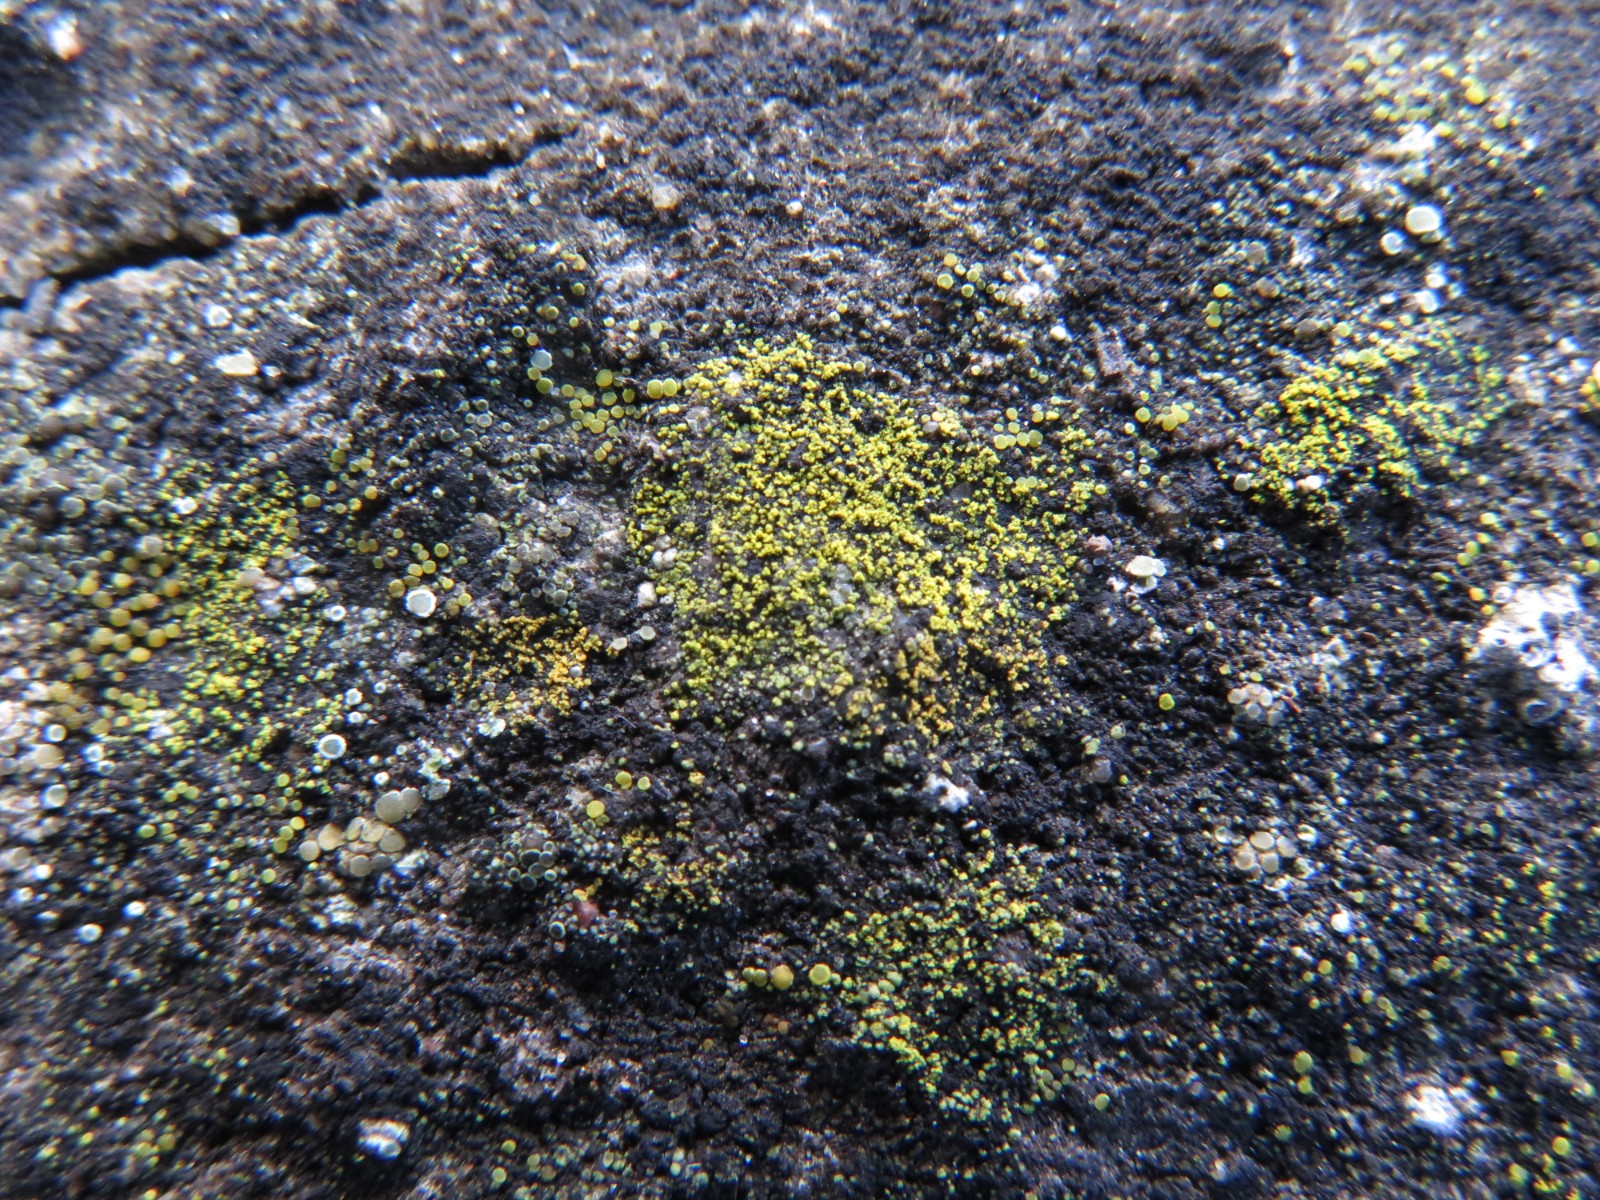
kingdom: Fungi
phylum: Ascomycota
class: Candelariomycetes
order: Candelariales
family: Candelariaceae
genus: Candelariella
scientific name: Candelariella vitellina
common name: almindelig æggeblommelav
